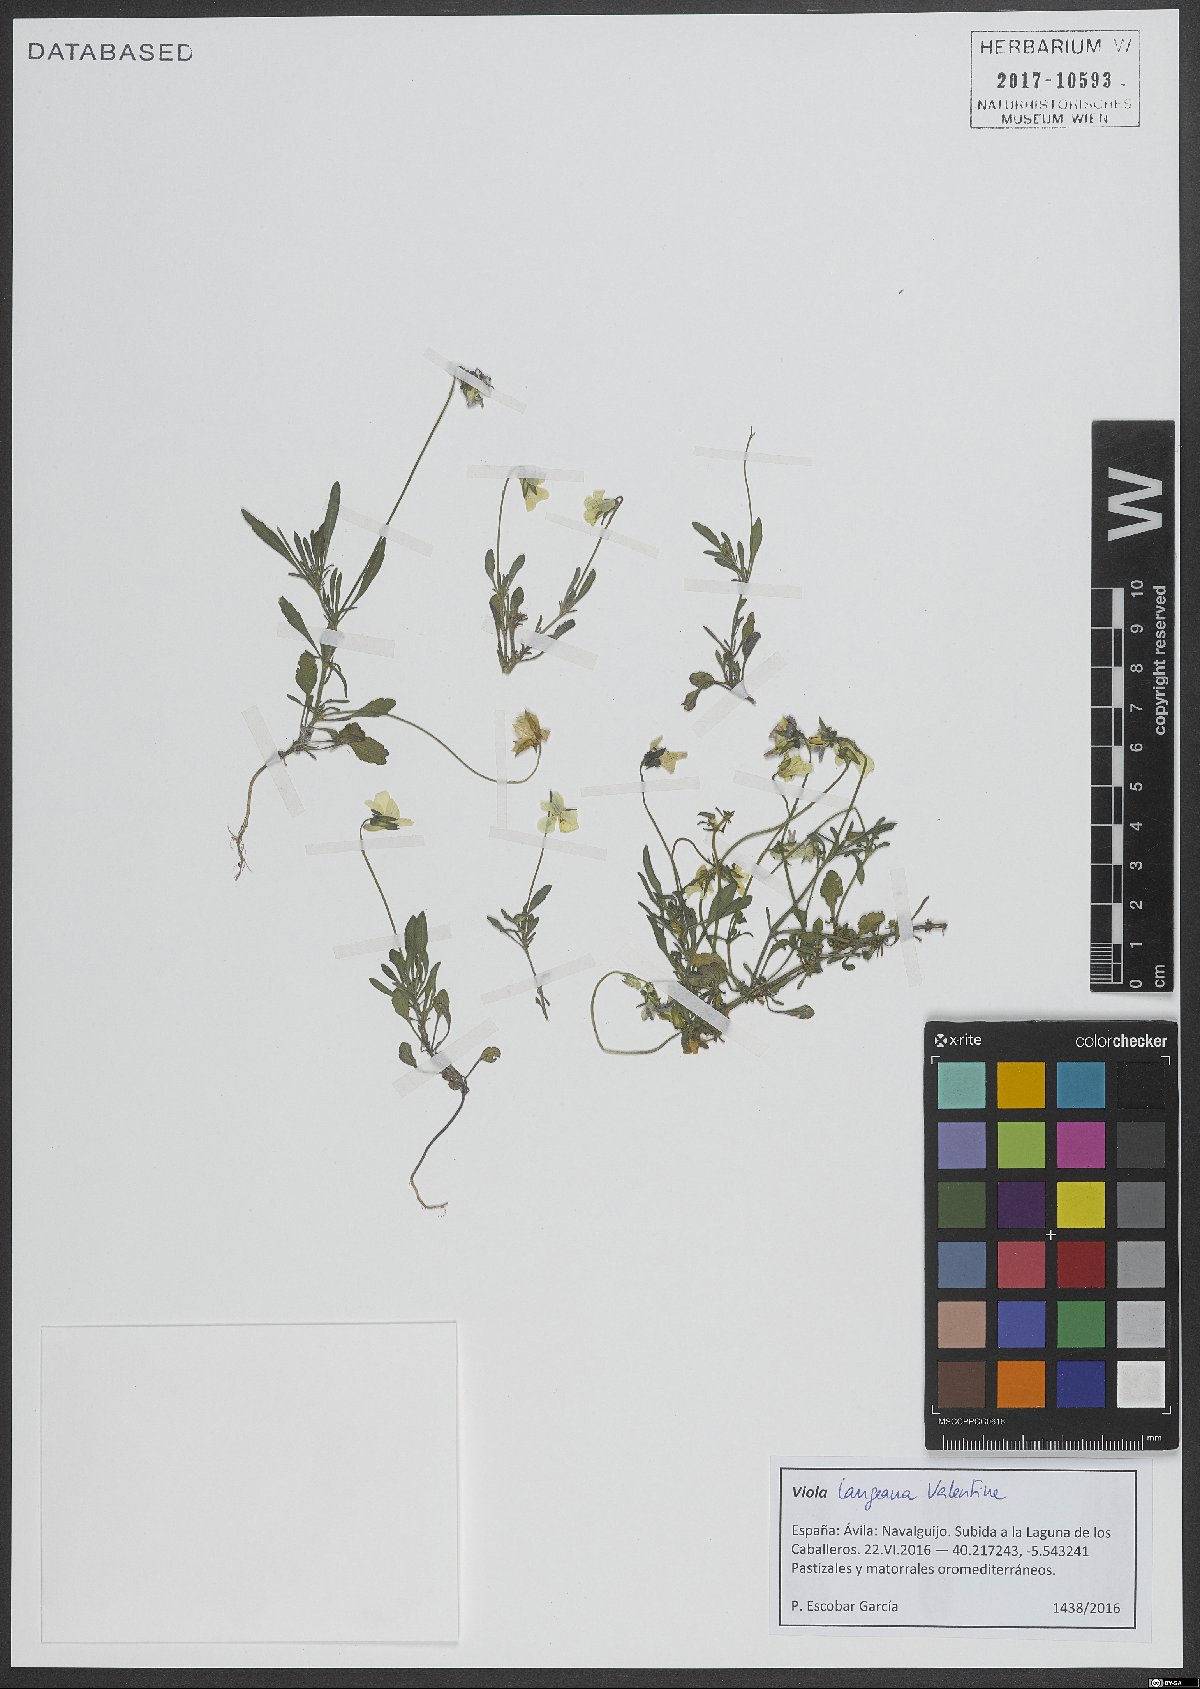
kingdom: Plantae
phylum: Tracheophyta
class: Magnoliopsida
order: Malpighiales
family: Violaceae
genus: Viola
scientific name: Viola langeana
